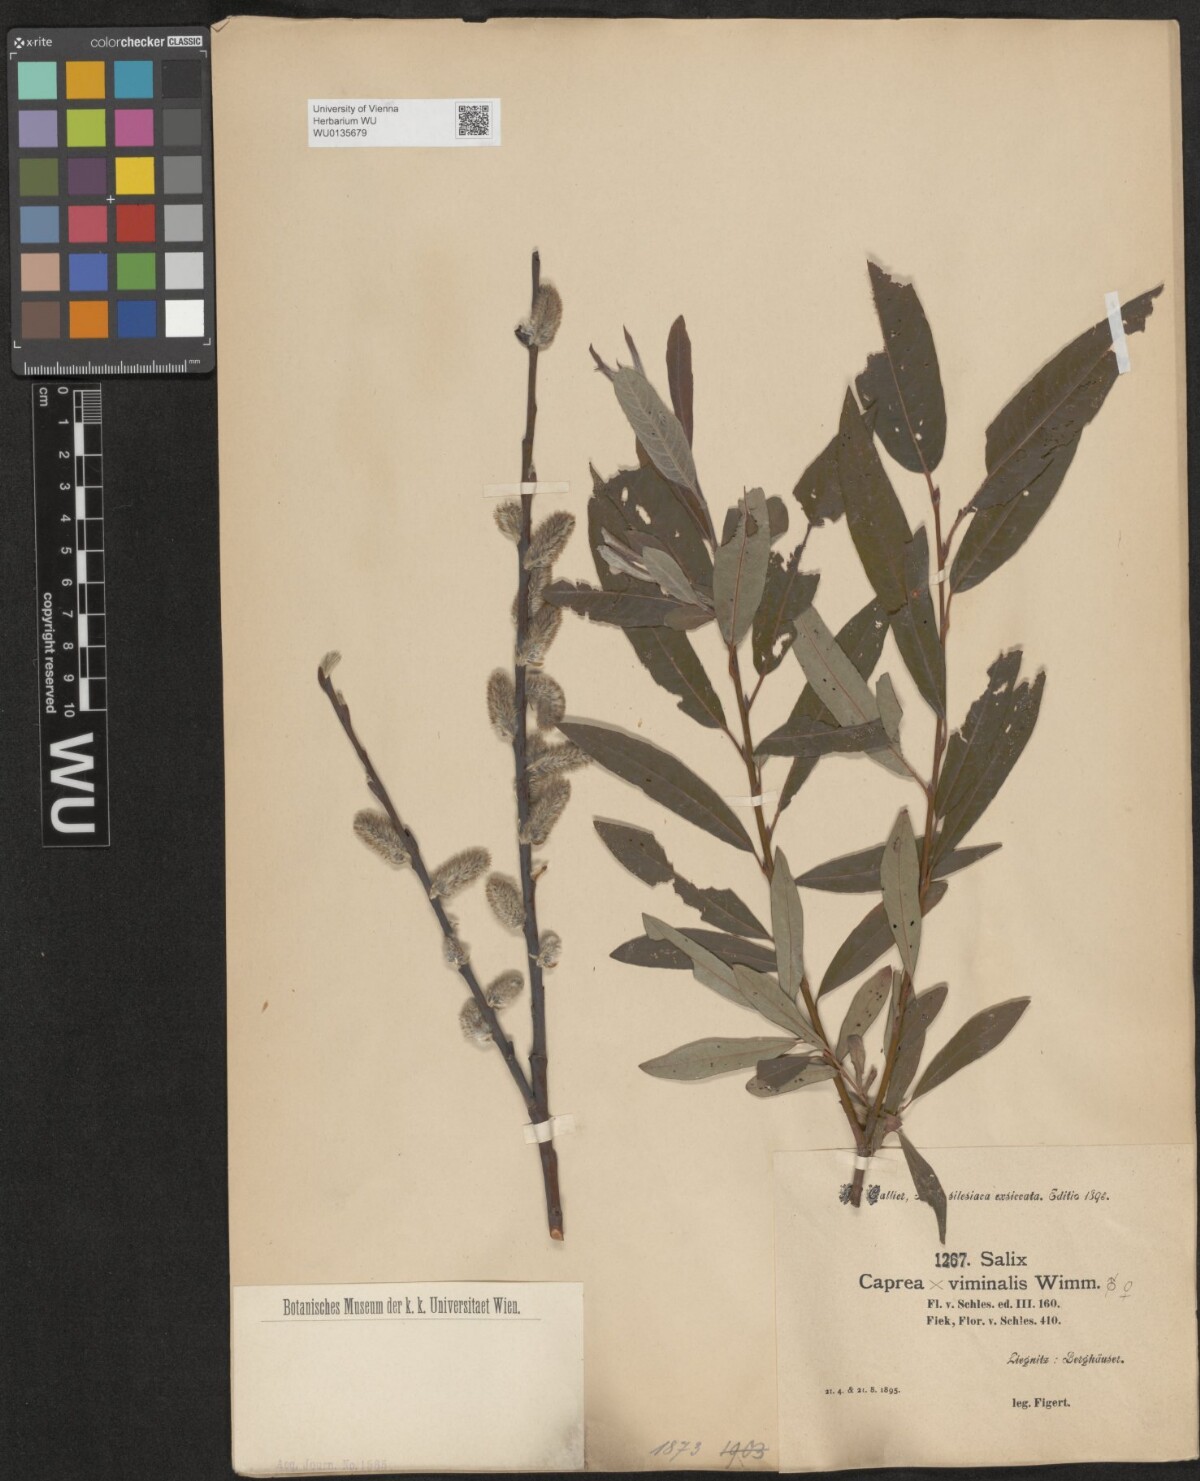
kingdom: Plantae
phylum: Tracheophyta
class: Magnoliopsida
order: Malpighiales
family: Salicaceae
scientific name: Salicaceae
